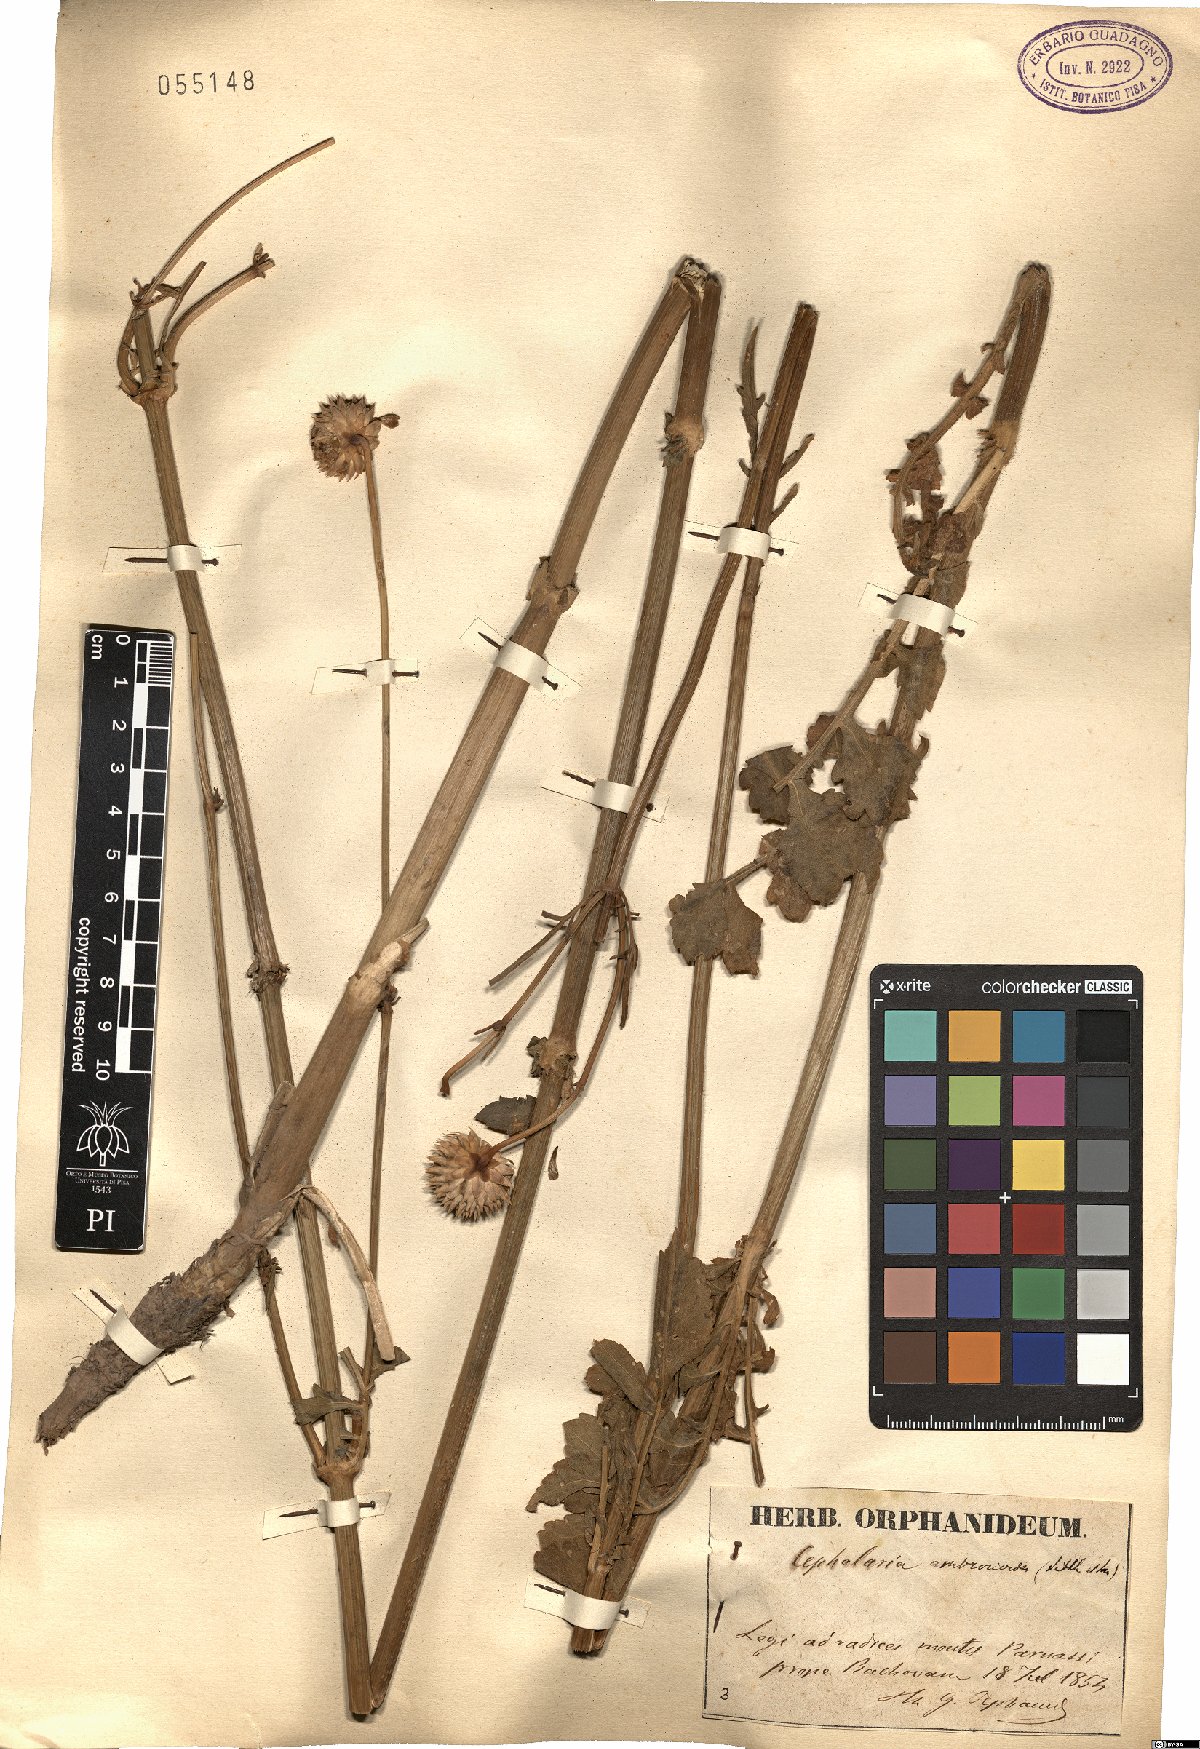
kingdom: Plantae
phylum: Tracheophyta
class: Magnoliopsida
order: Dipsacales
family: Caprifoliaceae
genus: Cephalaria
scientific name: Cephalaria ambrosioides
